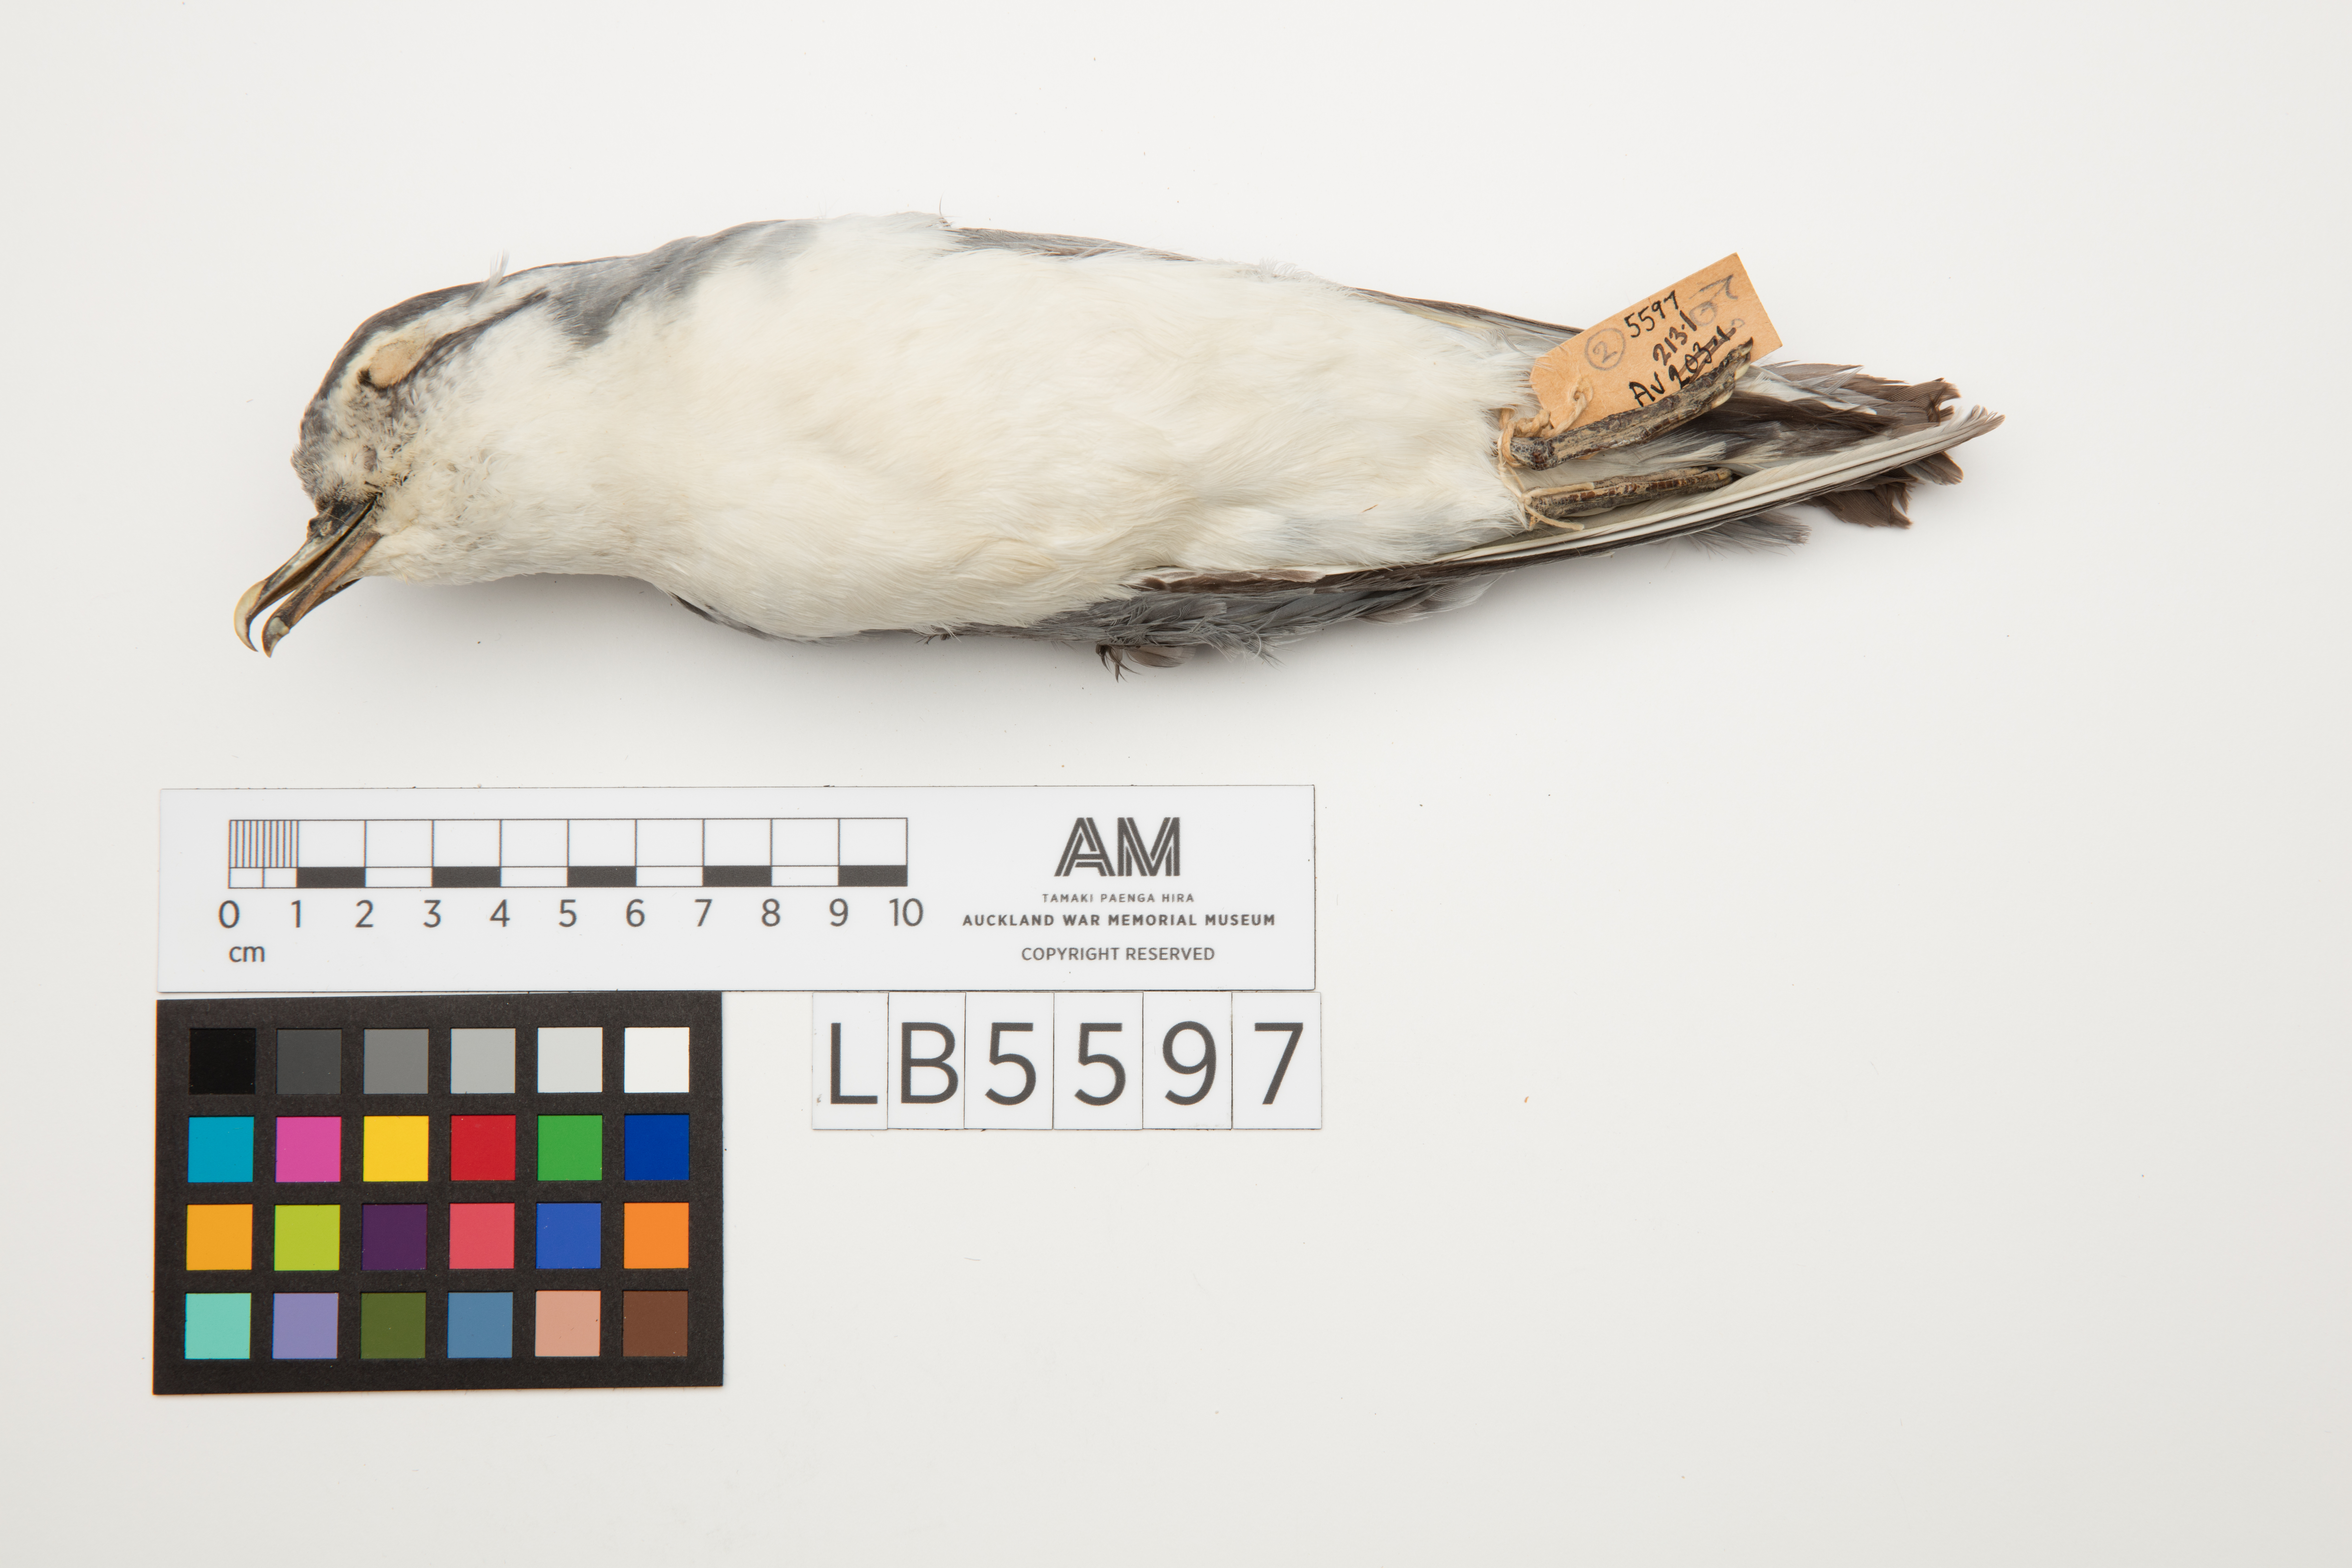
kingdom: Animalia
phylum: Chordata
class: Aves
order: Procellariiformes
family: Procellariidae
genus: Pachyptila
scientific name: Pachyptila belcheri
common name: Slender-billed prion
